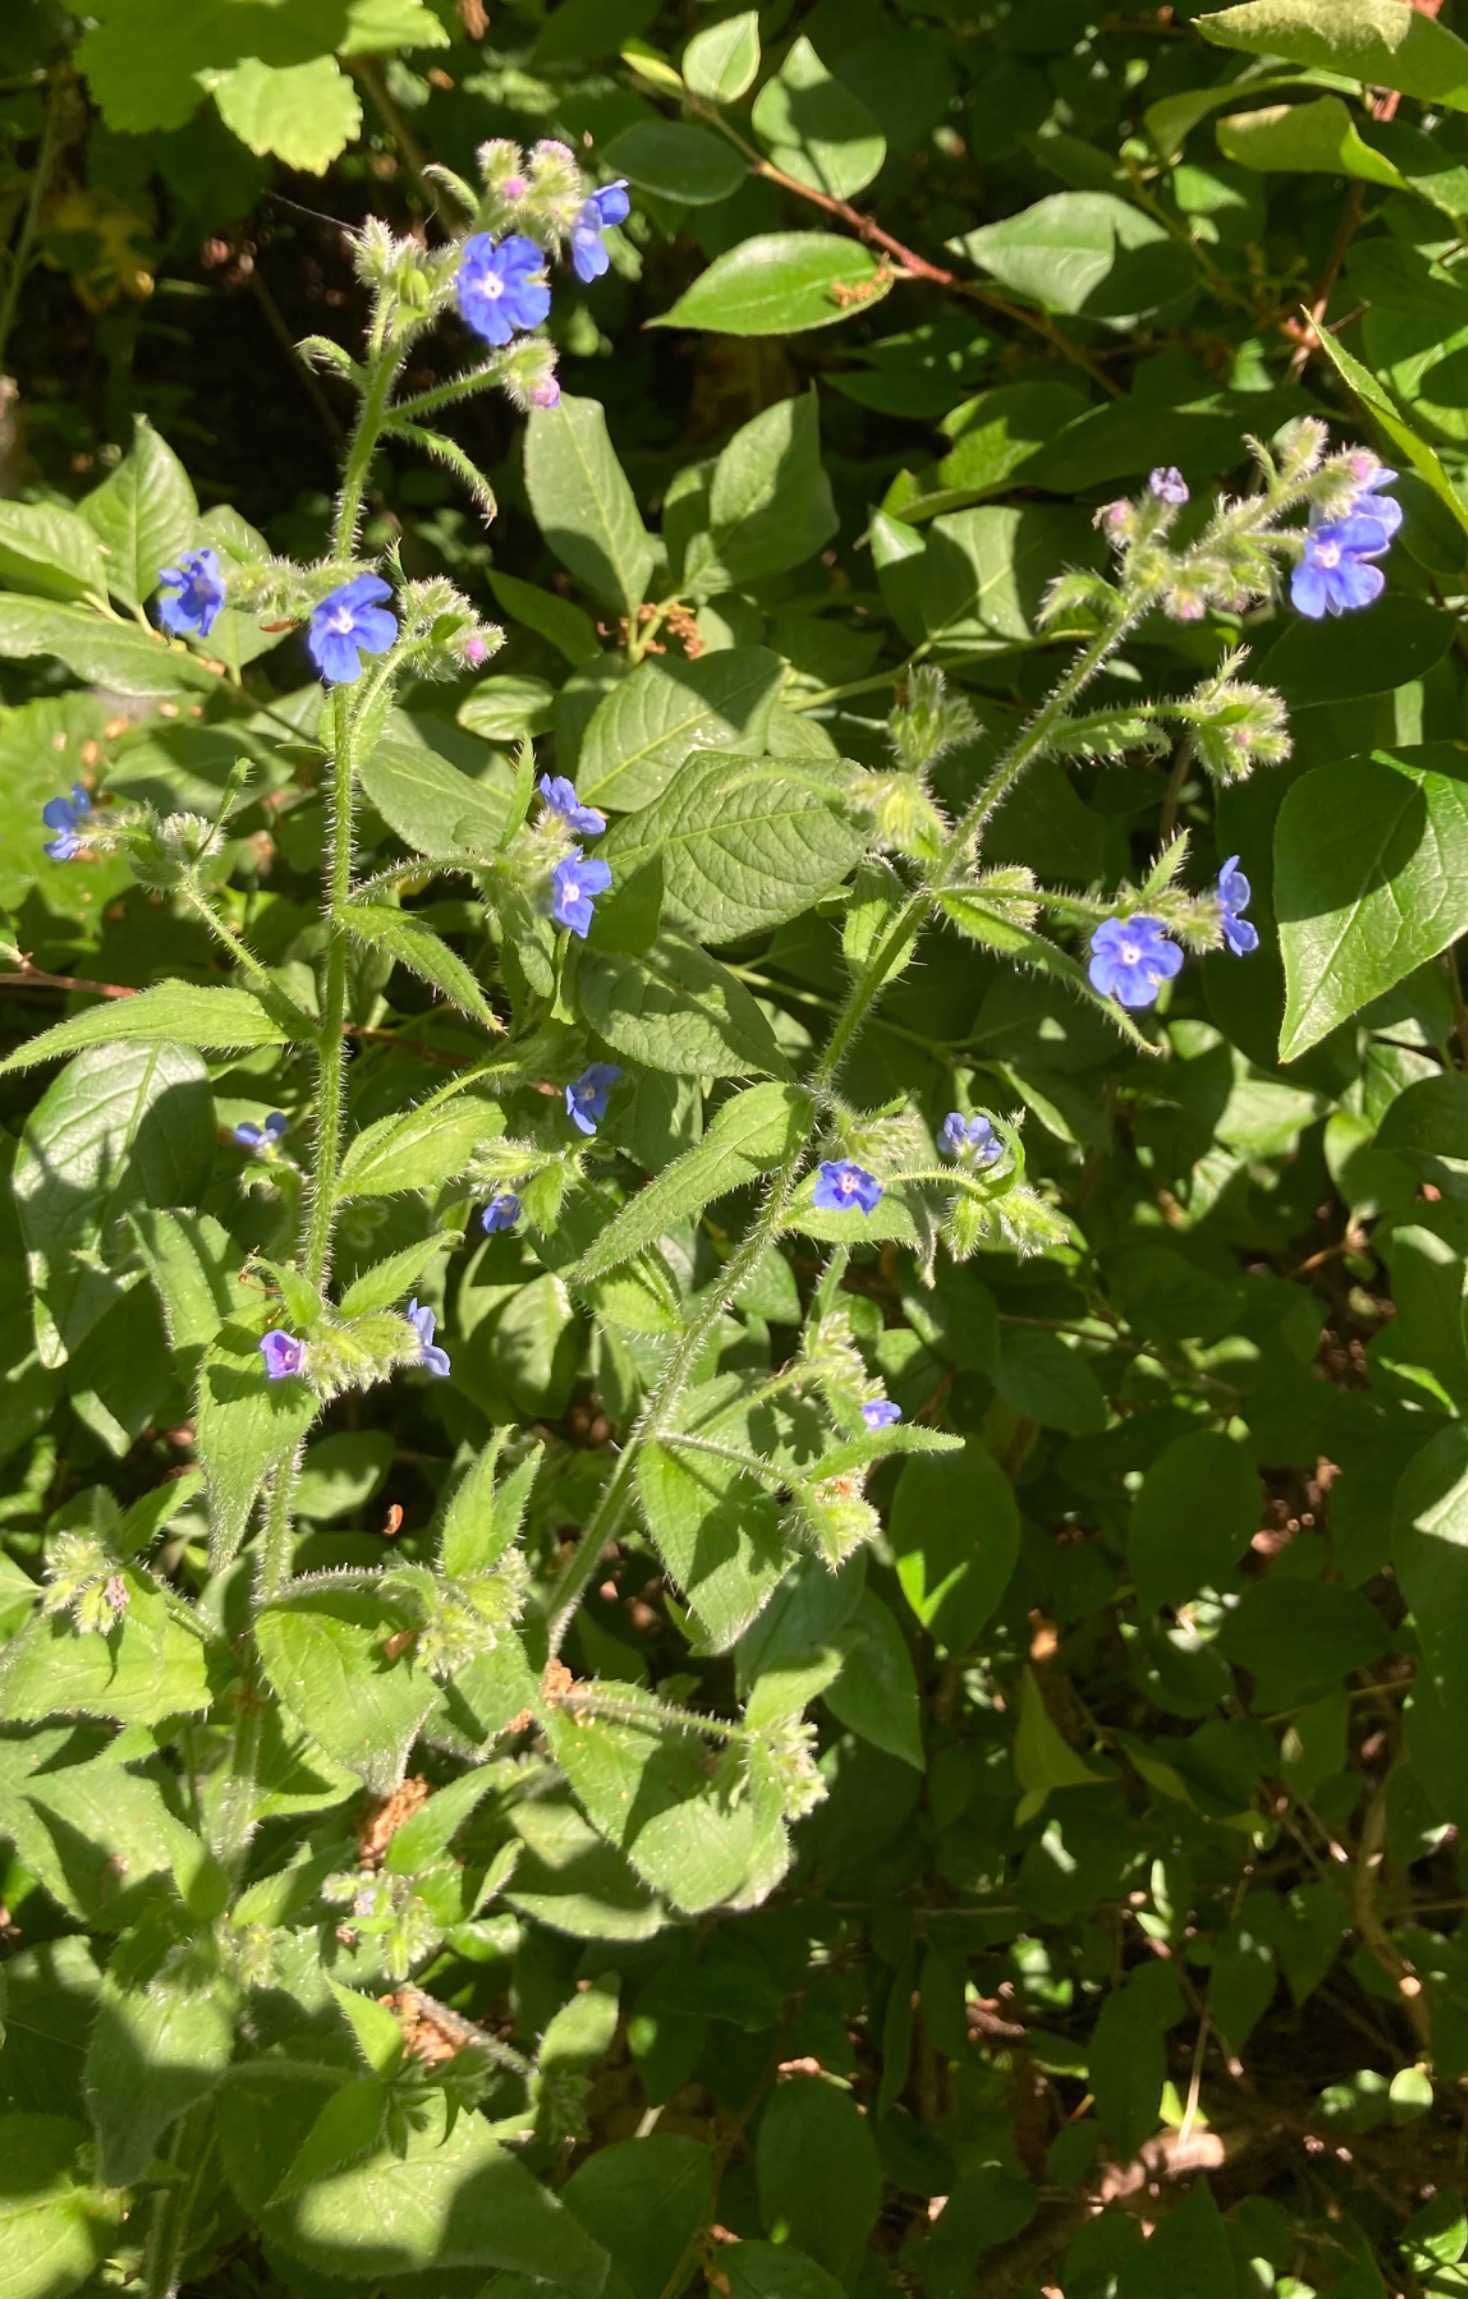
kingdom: Plantae
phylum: Tracheophyta
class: Magnoliopsida
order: Boraginales
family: Boraginaceae
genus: Pentaglottis
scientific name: Pentaglottis sempervirens
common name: Femtunge
